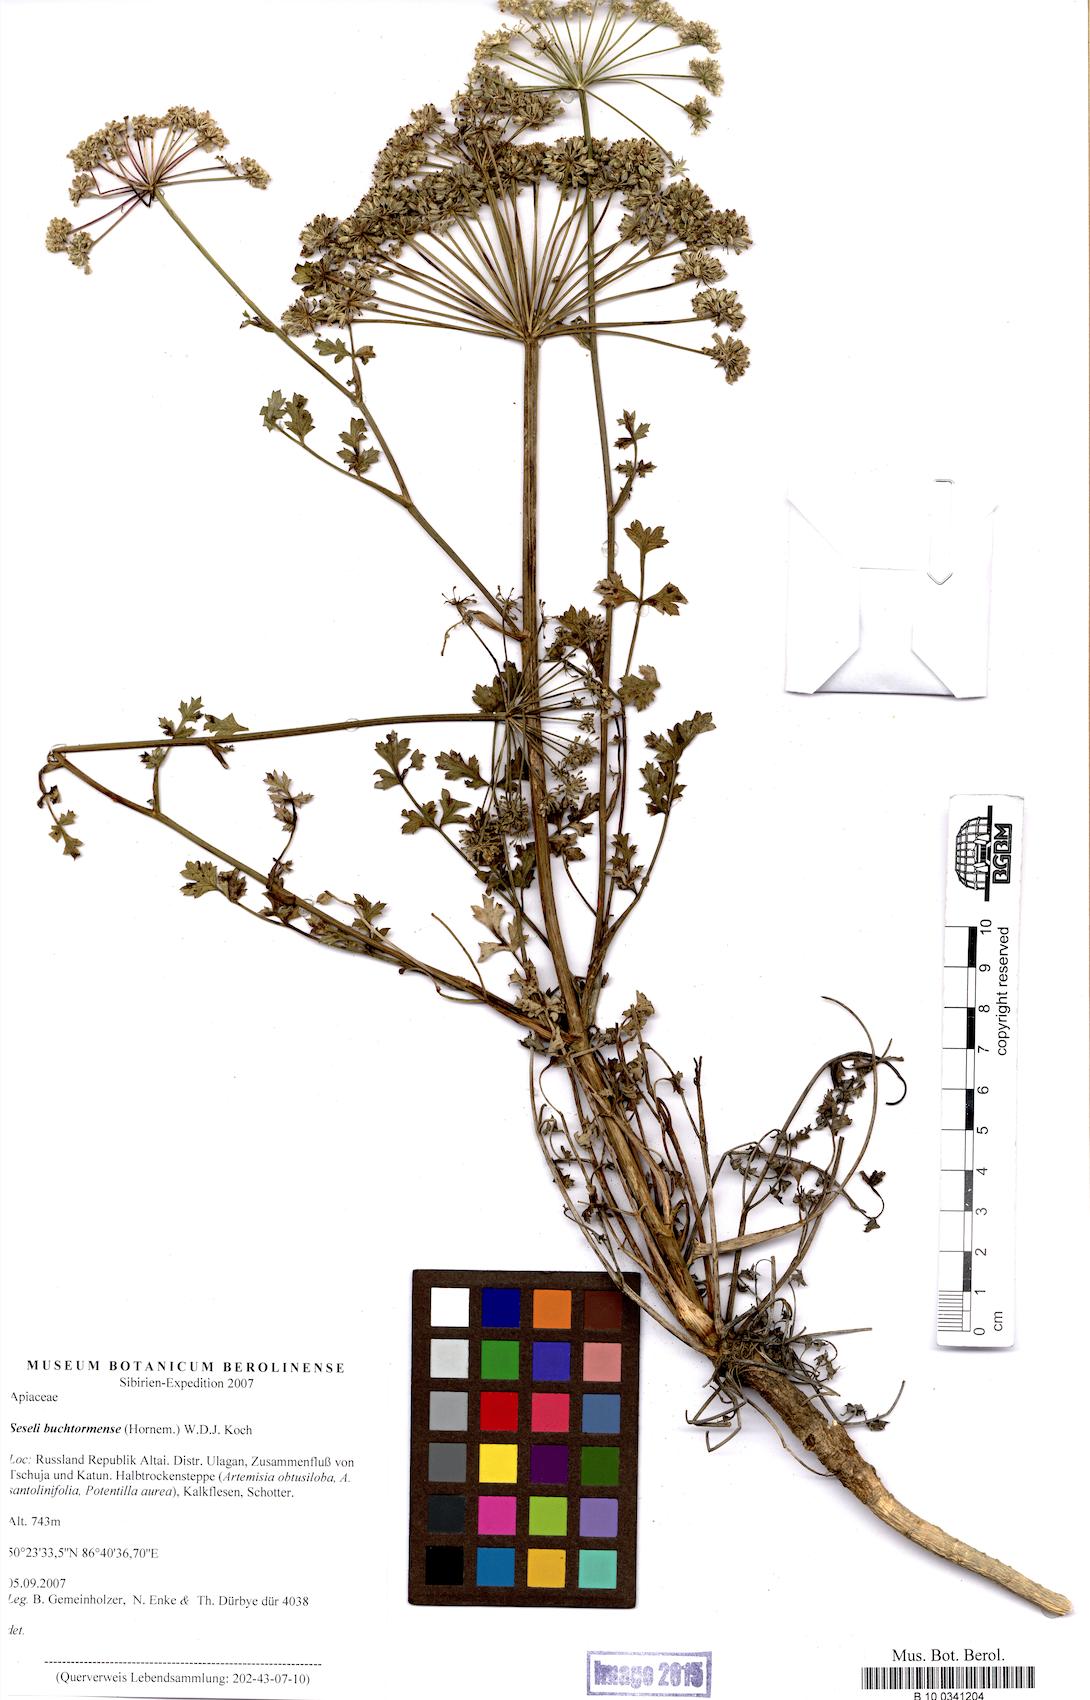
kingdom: Plantae
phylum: Tracheophyta
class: Magnoliopsida
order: Apiales
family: Apiaceae
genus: Seseli
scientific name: Seseli buchtormense
